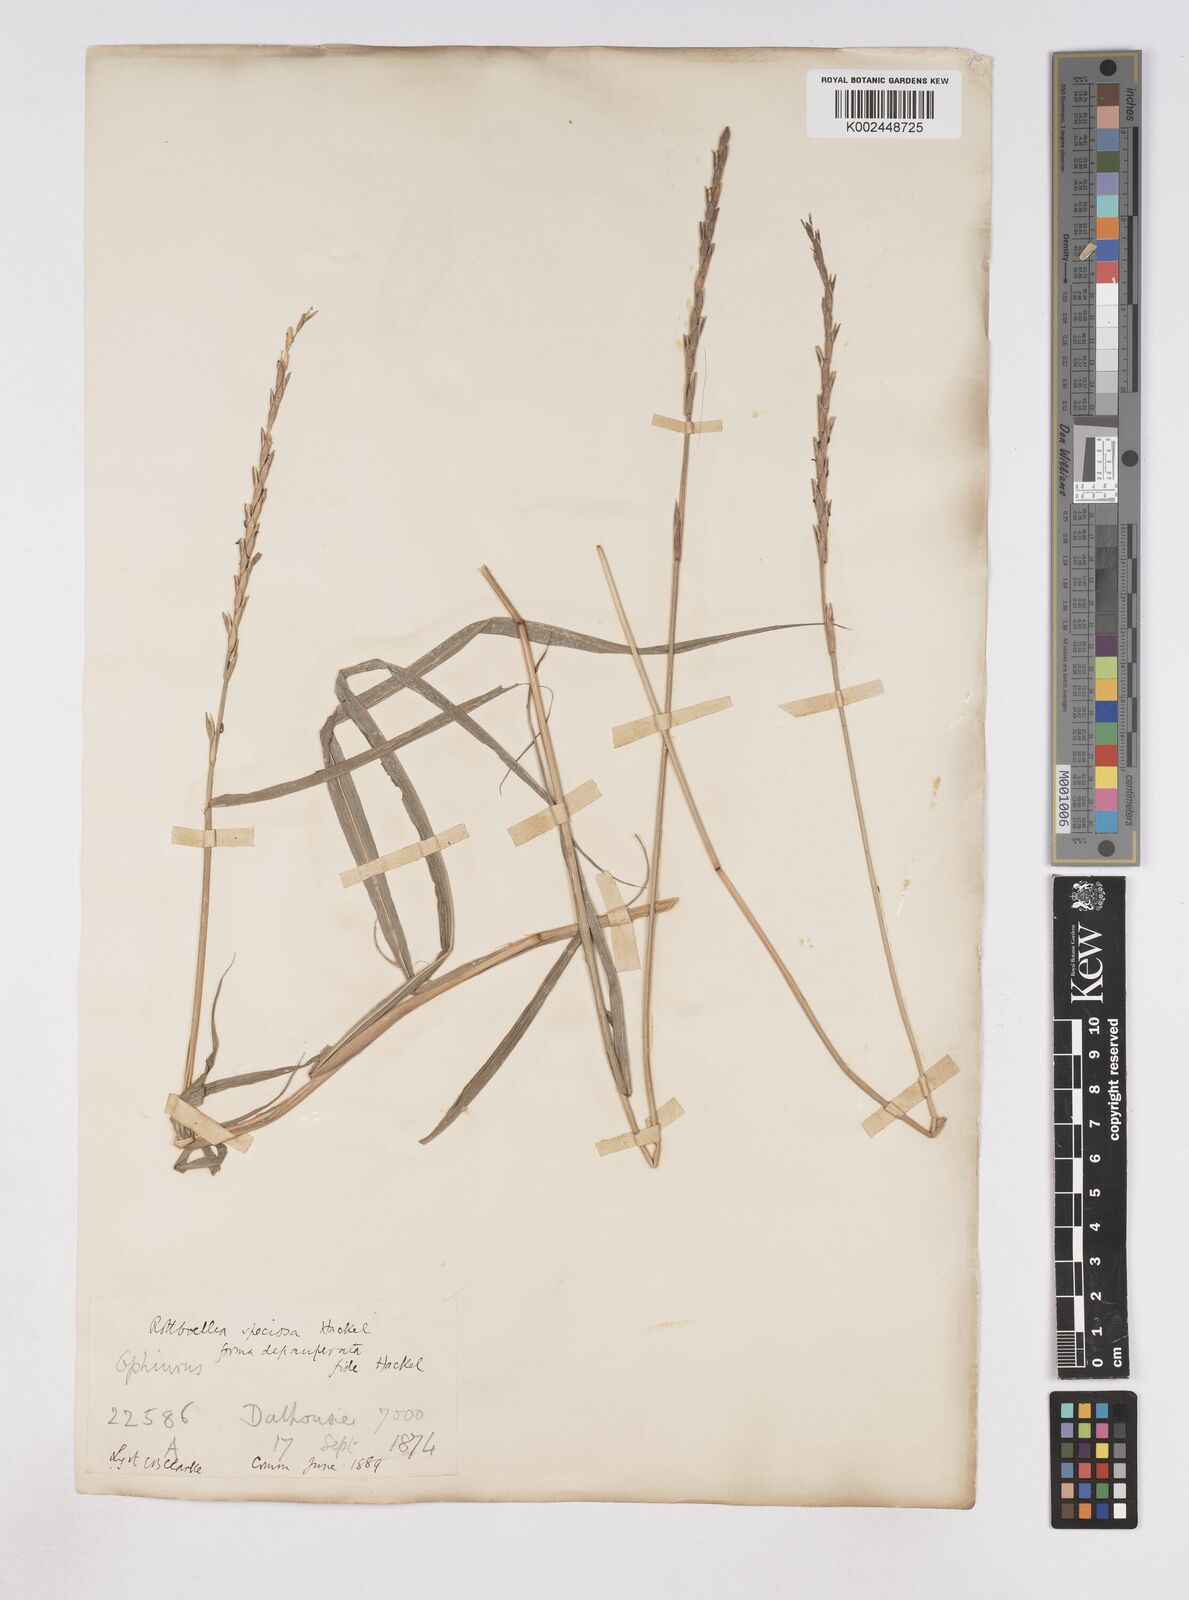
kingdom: Plantae
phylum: Tracheophyta
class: Liliopsida
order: Poales
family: Poaceae
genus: Phacelurus
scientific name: Phacelurus speciosus
